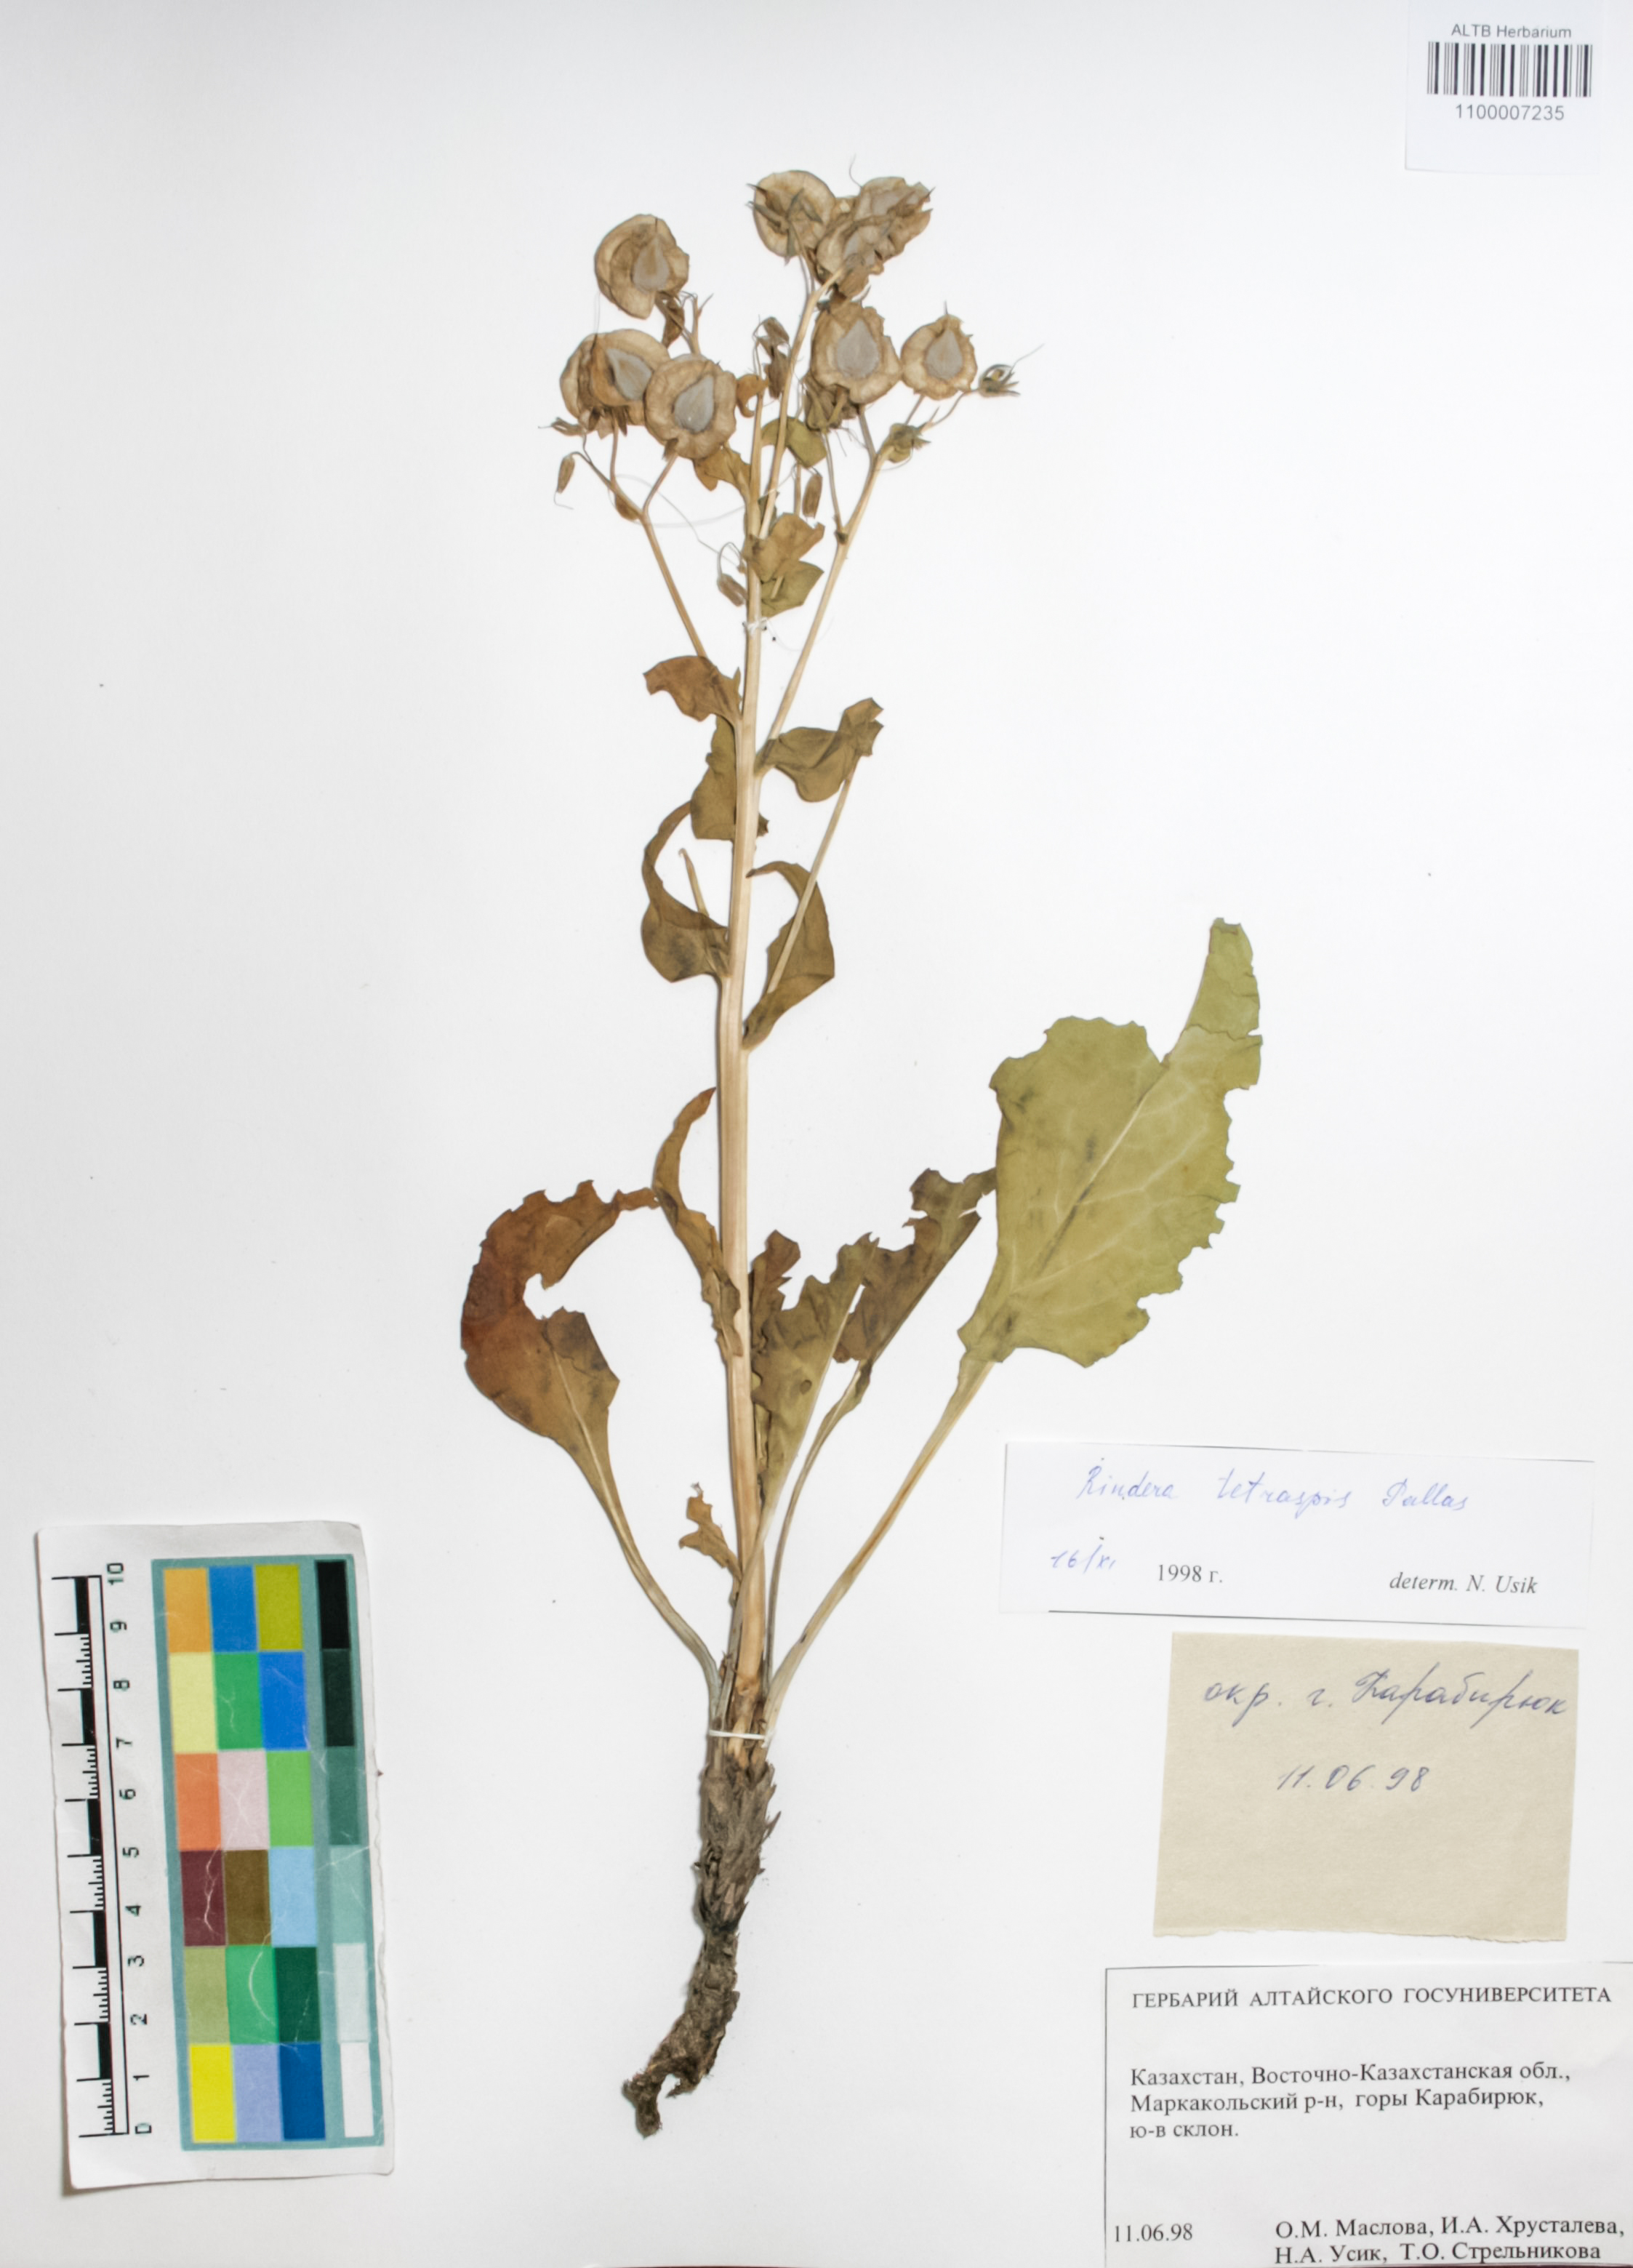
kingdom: Plantae
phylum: Tracheophyta
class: Magnoliopsida
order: Boraginales
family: Boraginaceae
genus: Rindera
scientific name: Rindera tetraspis
